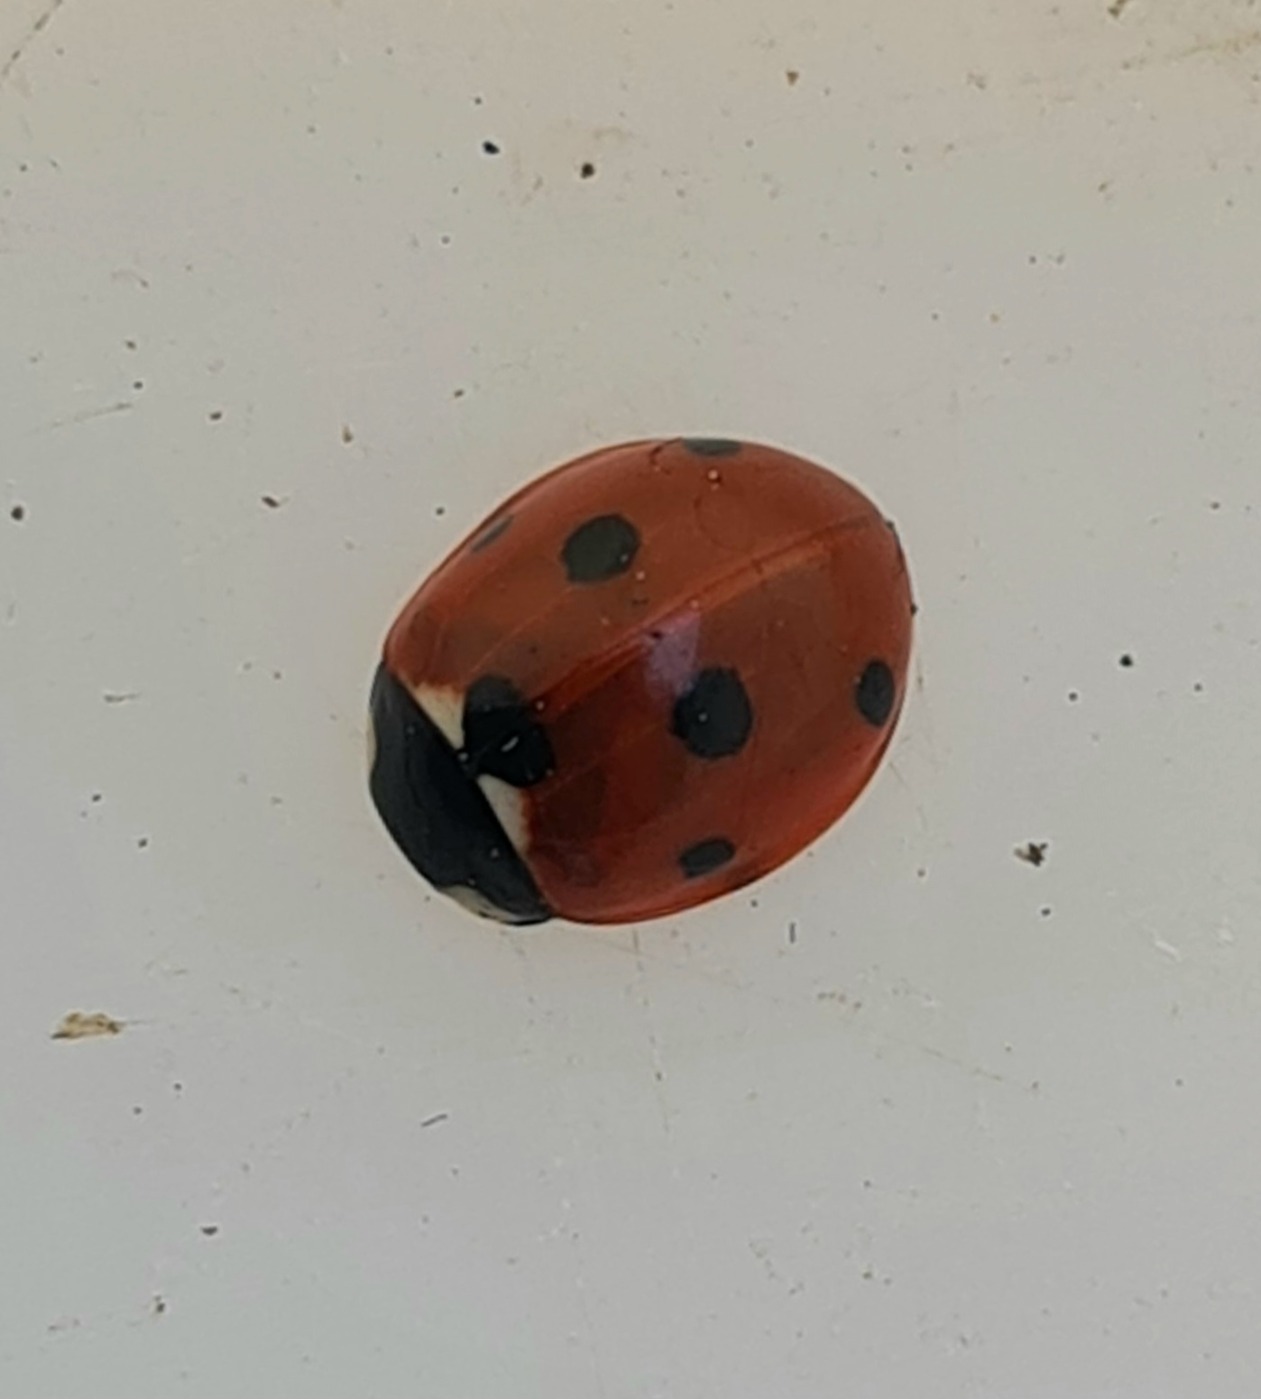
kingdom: Animalia
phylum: Arthropoda
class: Insecta
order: Coleoptera
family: Coccinellidae
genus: Coccinella
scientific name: Coccinella septempunctata
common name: Syvplettet mariehøne
